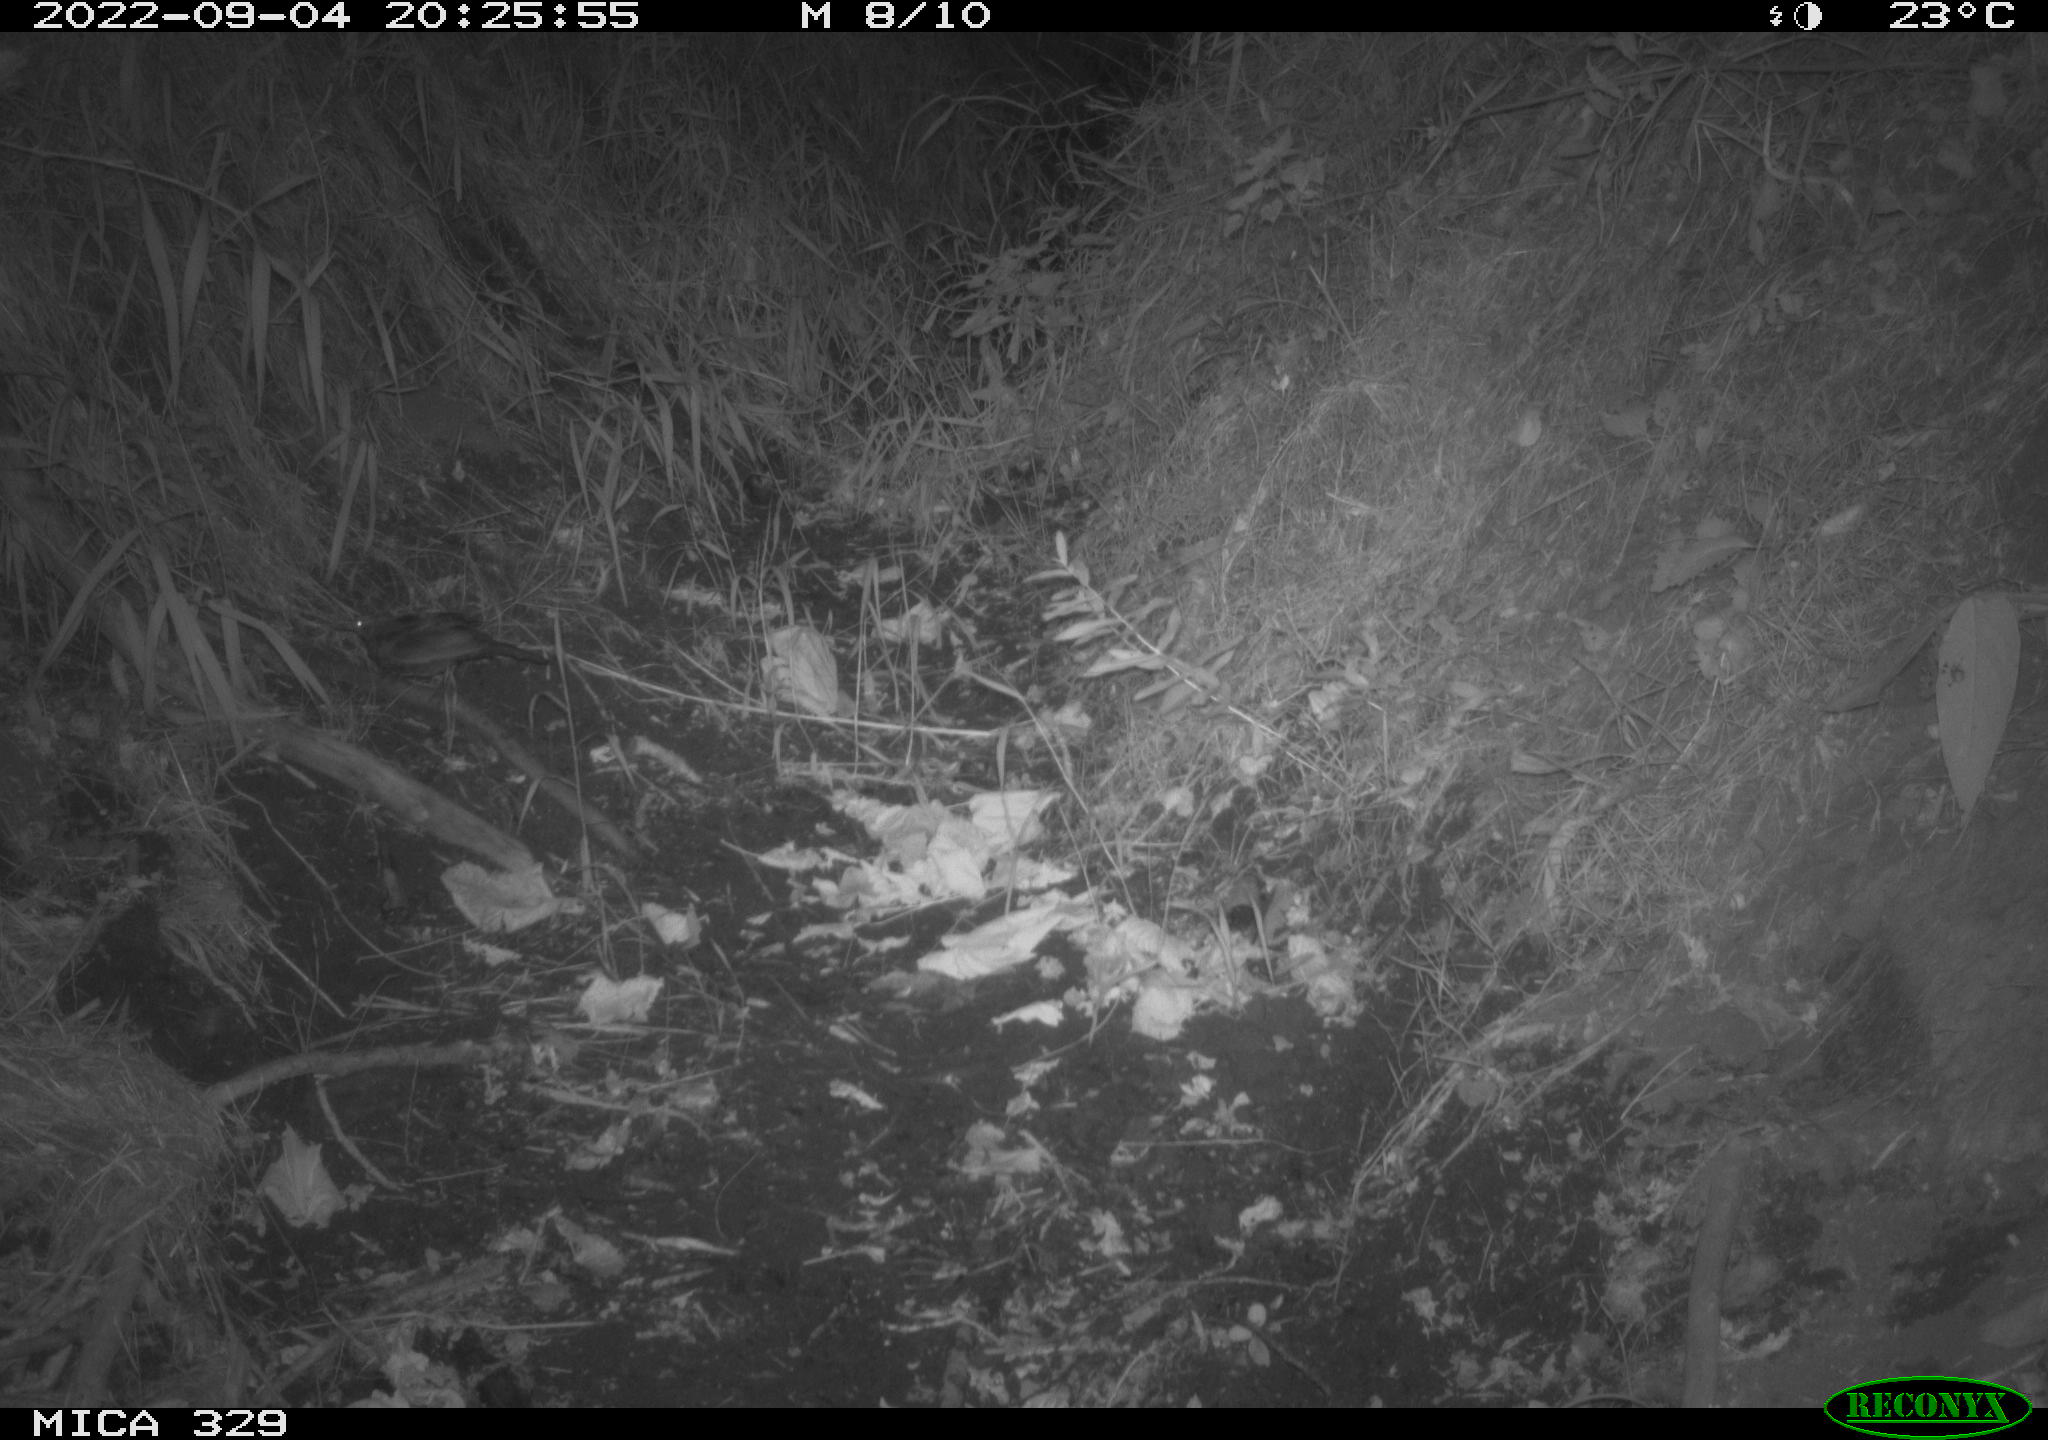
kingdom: Animalia
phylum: Chordata
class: Aves
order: Passeriformes
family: Turdidae
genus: Turdus
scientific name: Turdus merula
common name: Common blackbird
